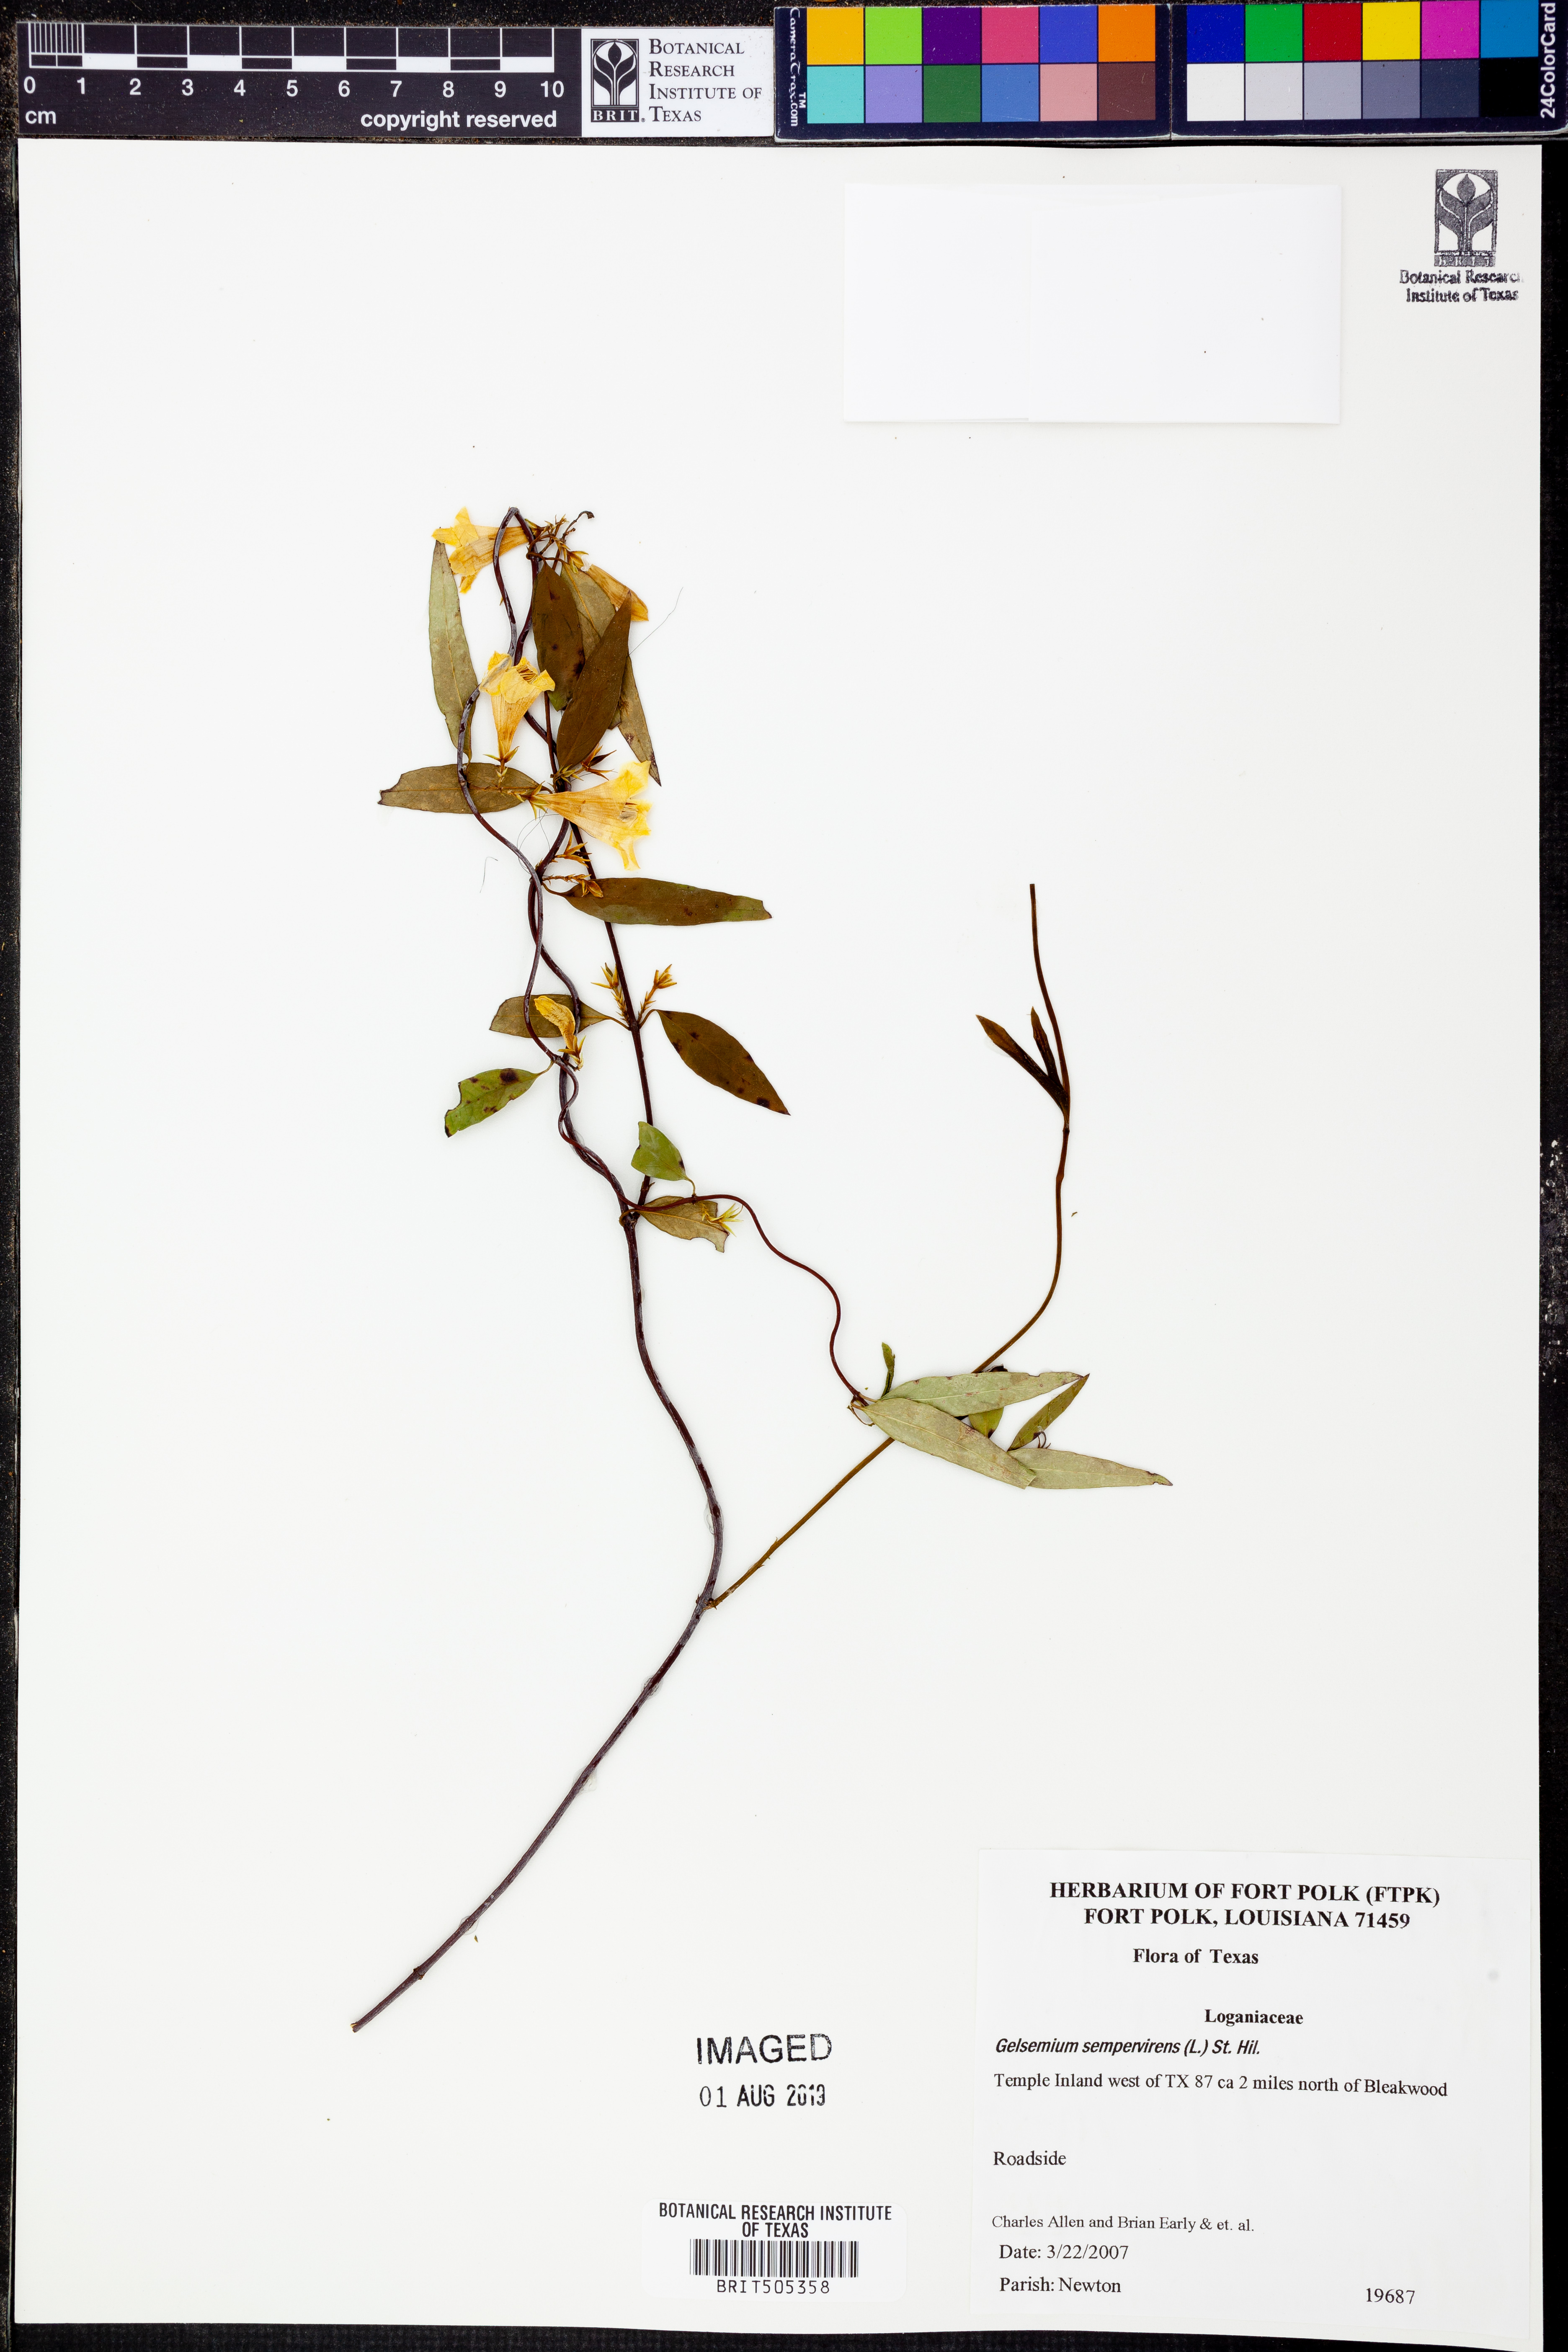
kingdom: Plantae
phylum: Tracheophyta
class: Magnoliopsida
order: Gentianales
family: Gelsemiaceae
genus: Gelsemium
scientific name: Gelsemium sempervirens
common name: Carolina-jasmine
